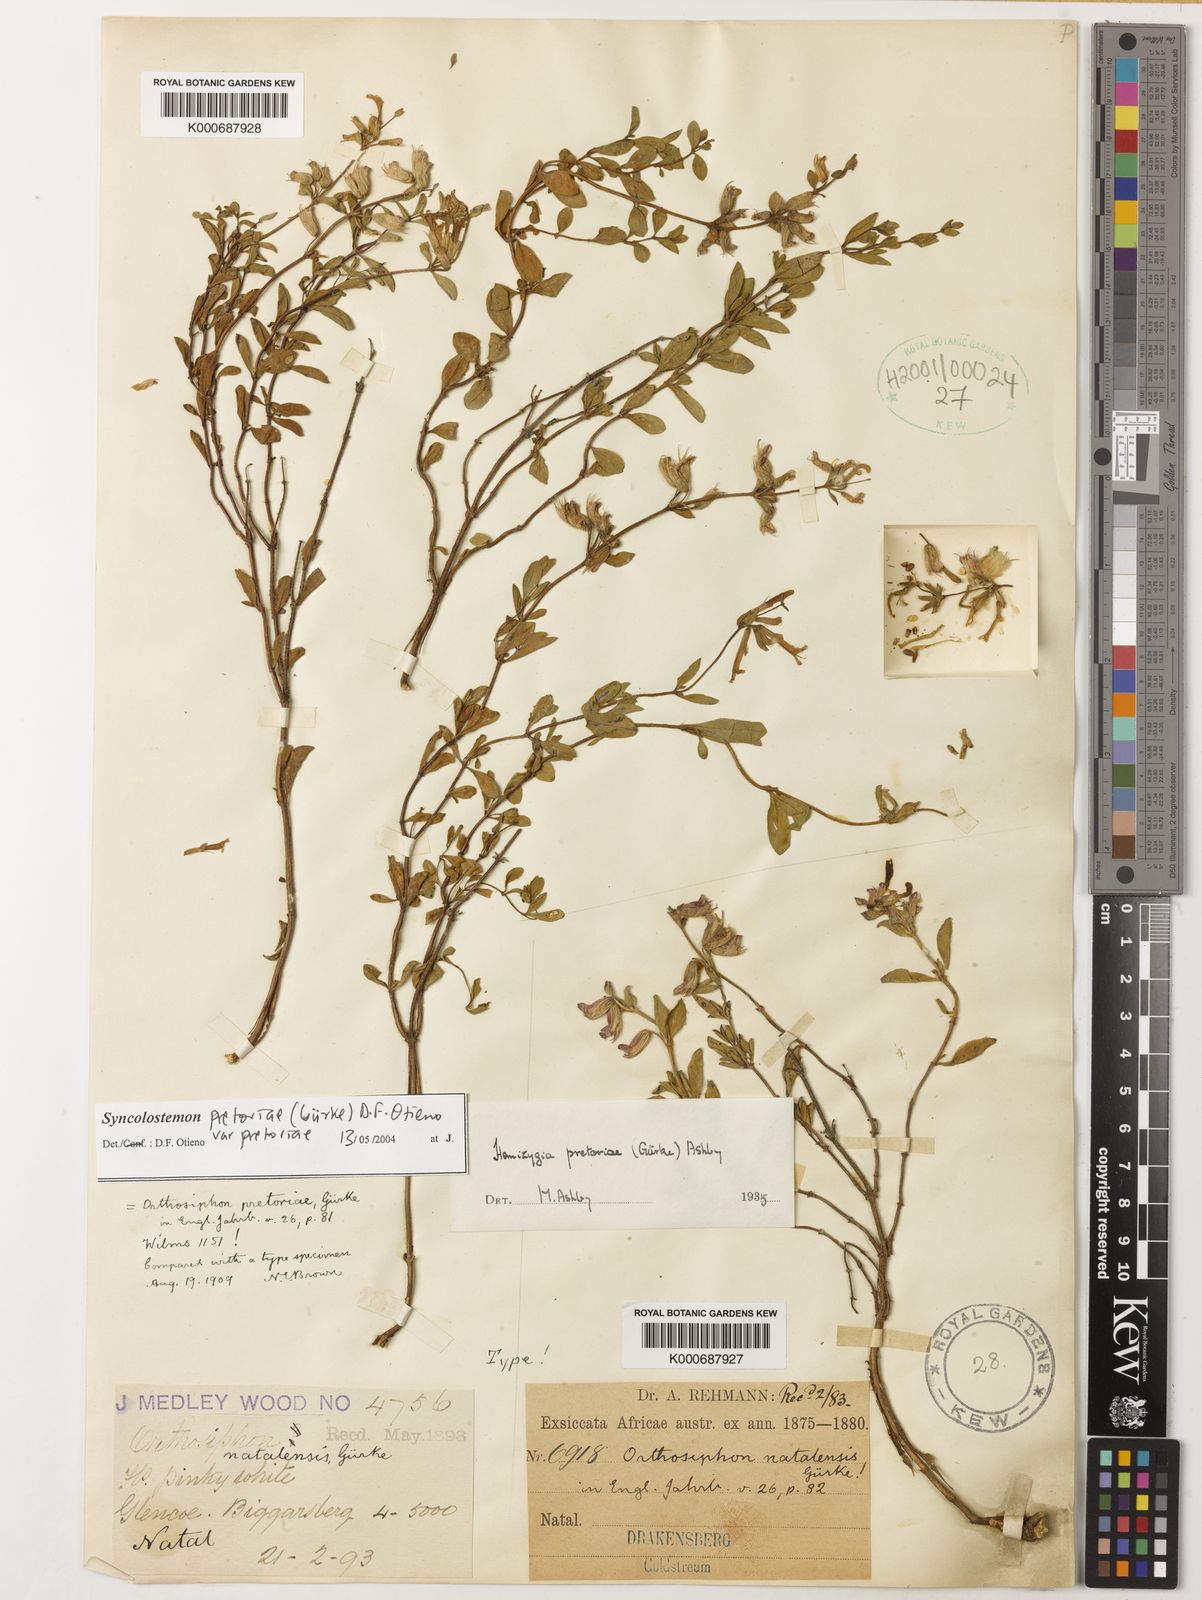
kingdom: Plantae
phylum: Tracheophyta
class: Magnoliopsida
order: Lamiales
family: Lamiaceae
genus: Syncolostemon
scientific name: Syncolostemon pretoriae
